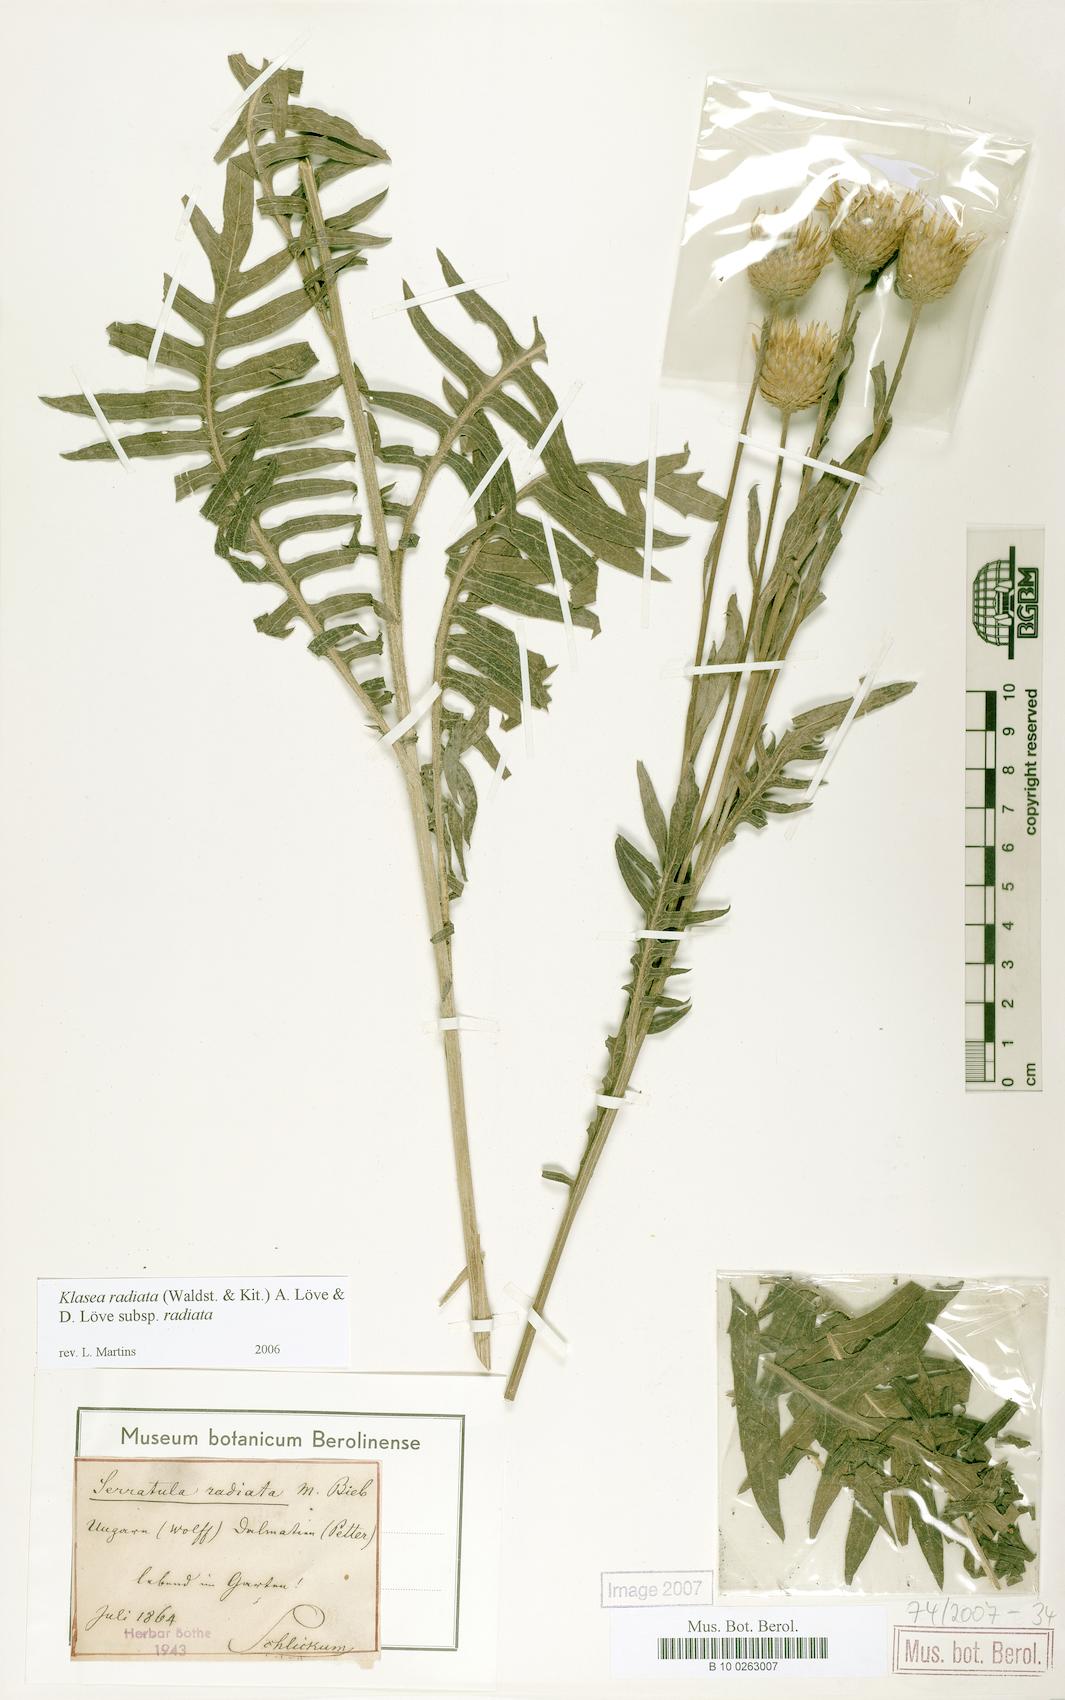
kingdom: Plantae
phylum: Tracheophyta
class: Magnoliopsida
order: Asterales
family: Asteraceae
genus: Klasea
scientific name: Klasea radiata
